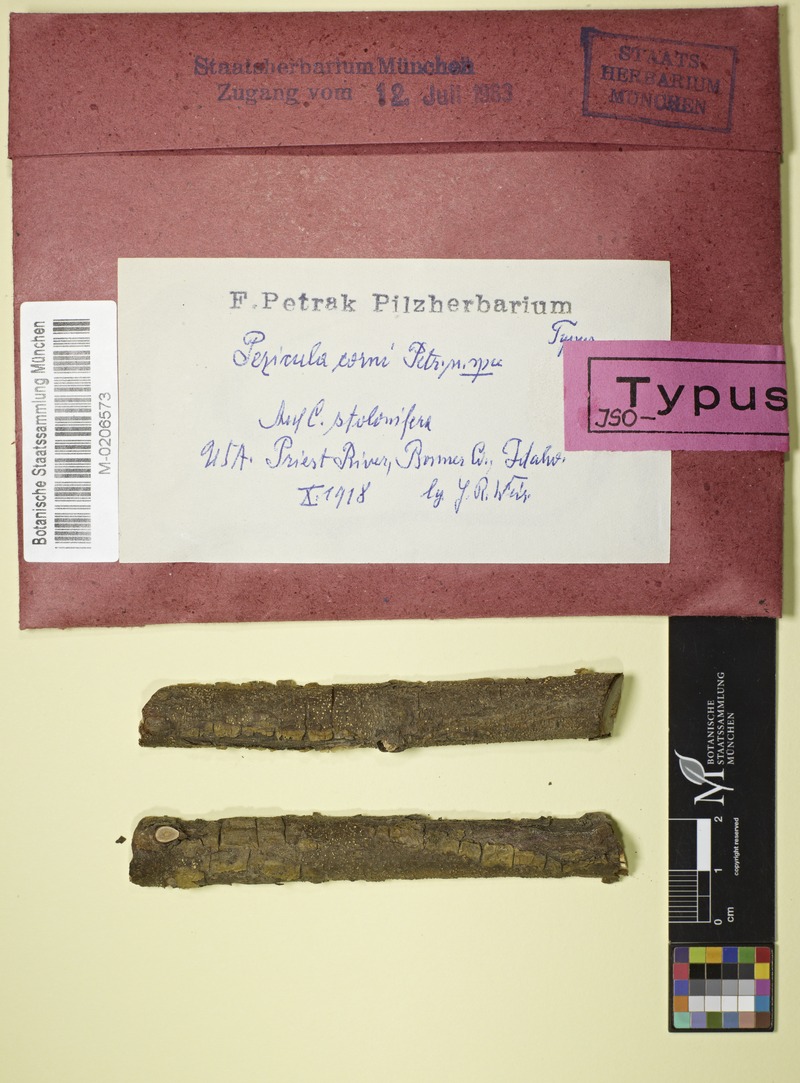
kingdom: Fungi
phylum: Ascomycota
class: Leotiomycetes
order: Helotiales
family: Dermateaceae
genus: Pezicula
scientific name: Pezicula corni
